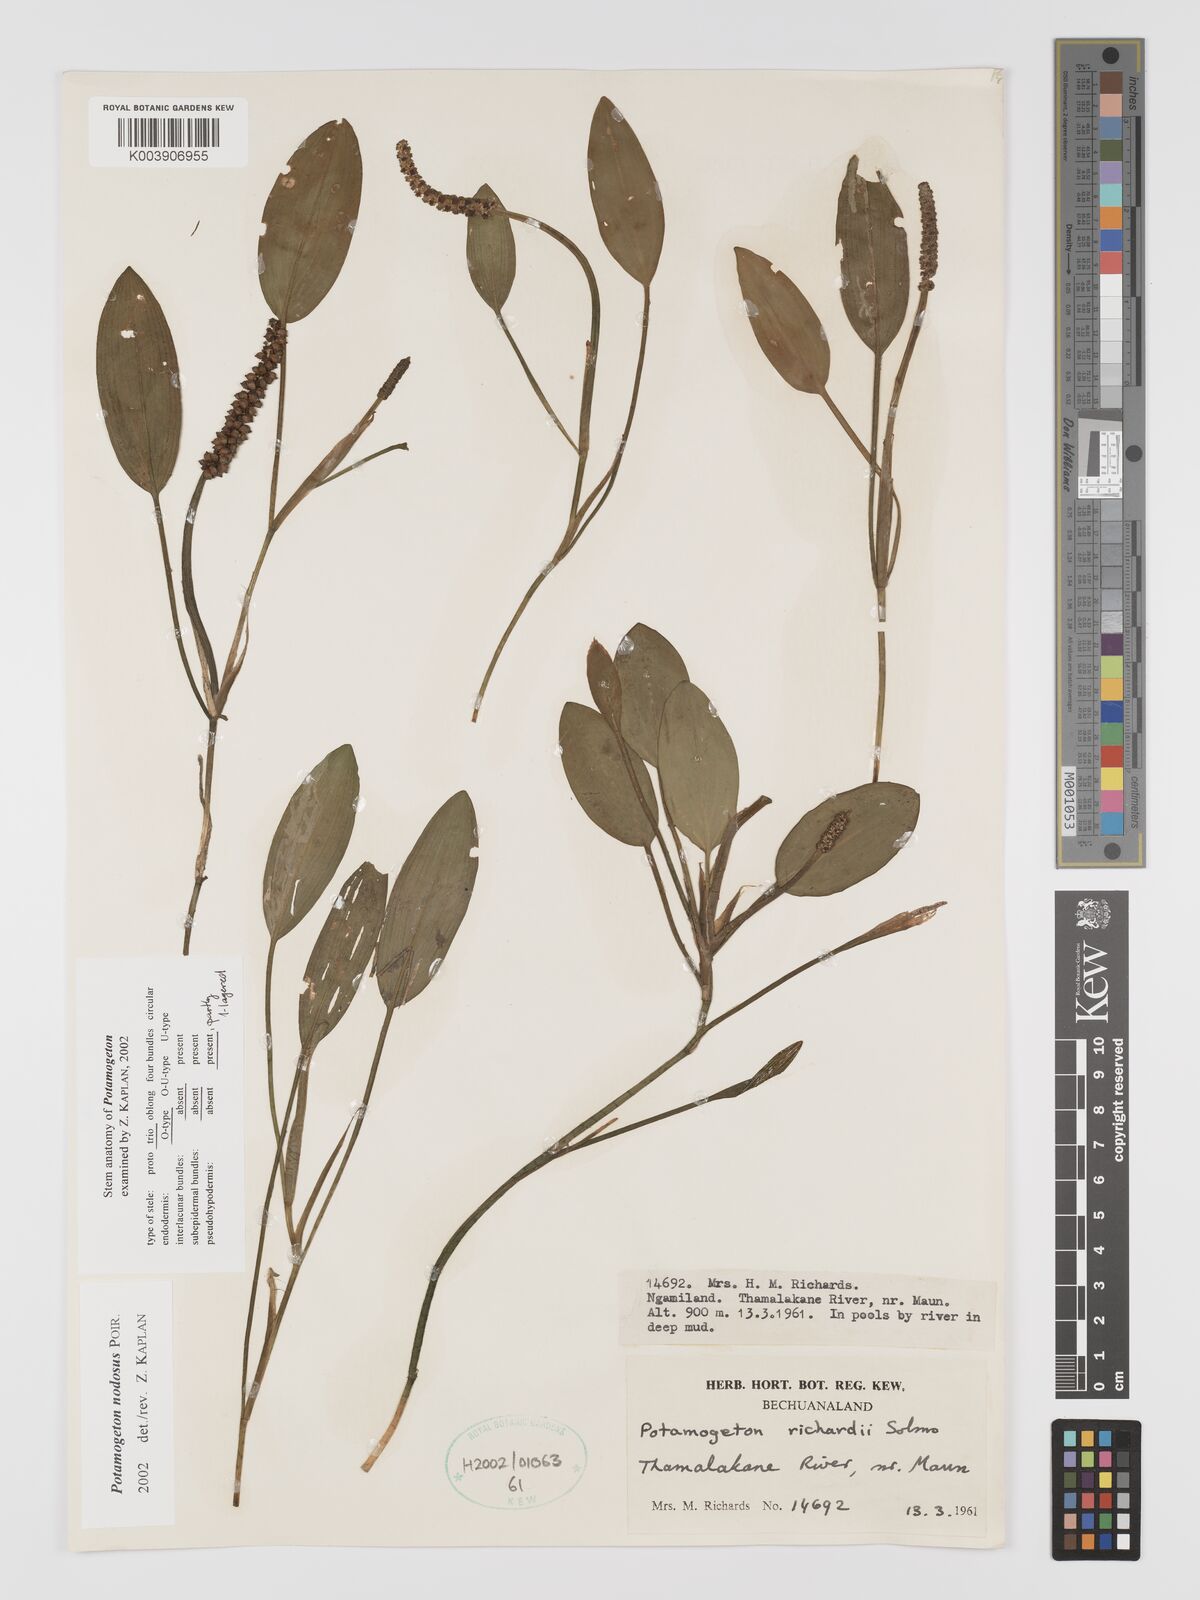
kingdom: Plantae
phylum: Tracheophyta
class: Liliopsida
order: Alismatales
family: Potamogetonaceae
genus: Potamogeton
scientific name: Potamogeton nodosus
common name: Loddon pondweed
